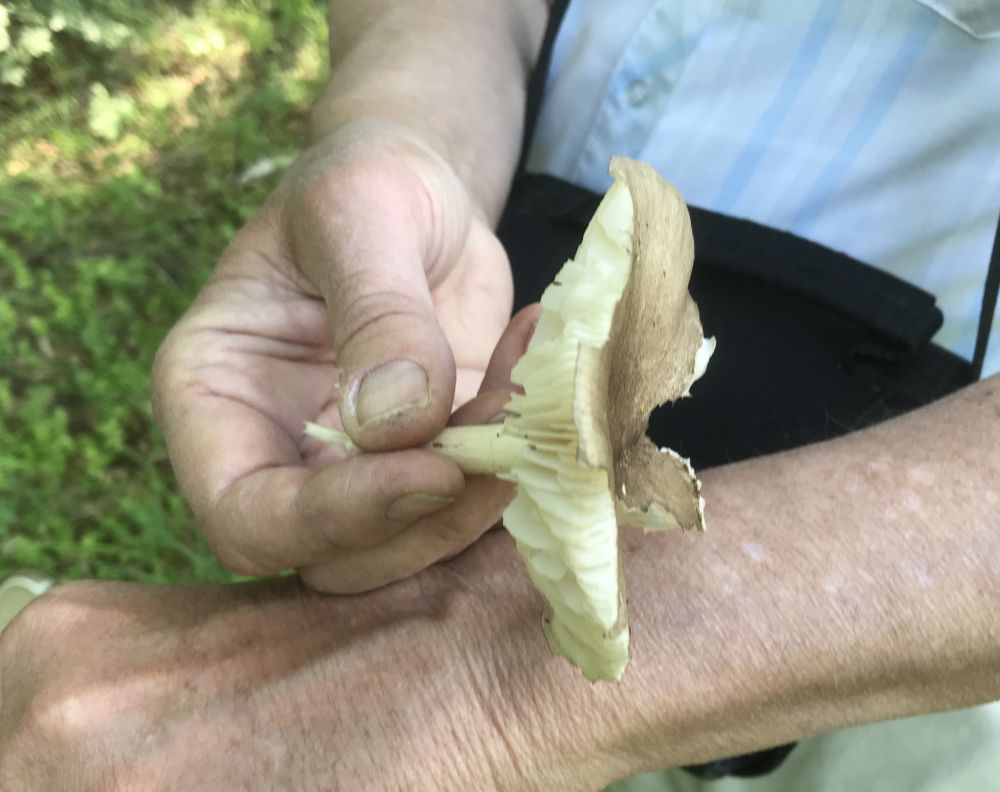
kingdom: Fungi
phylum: Basidiomycota
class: Agaricomycetes
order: Agaricales
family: Tricholomataceae
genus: Megacollybia
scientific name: Megacollybia platyphylla
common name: bredbladet væbnerhat
